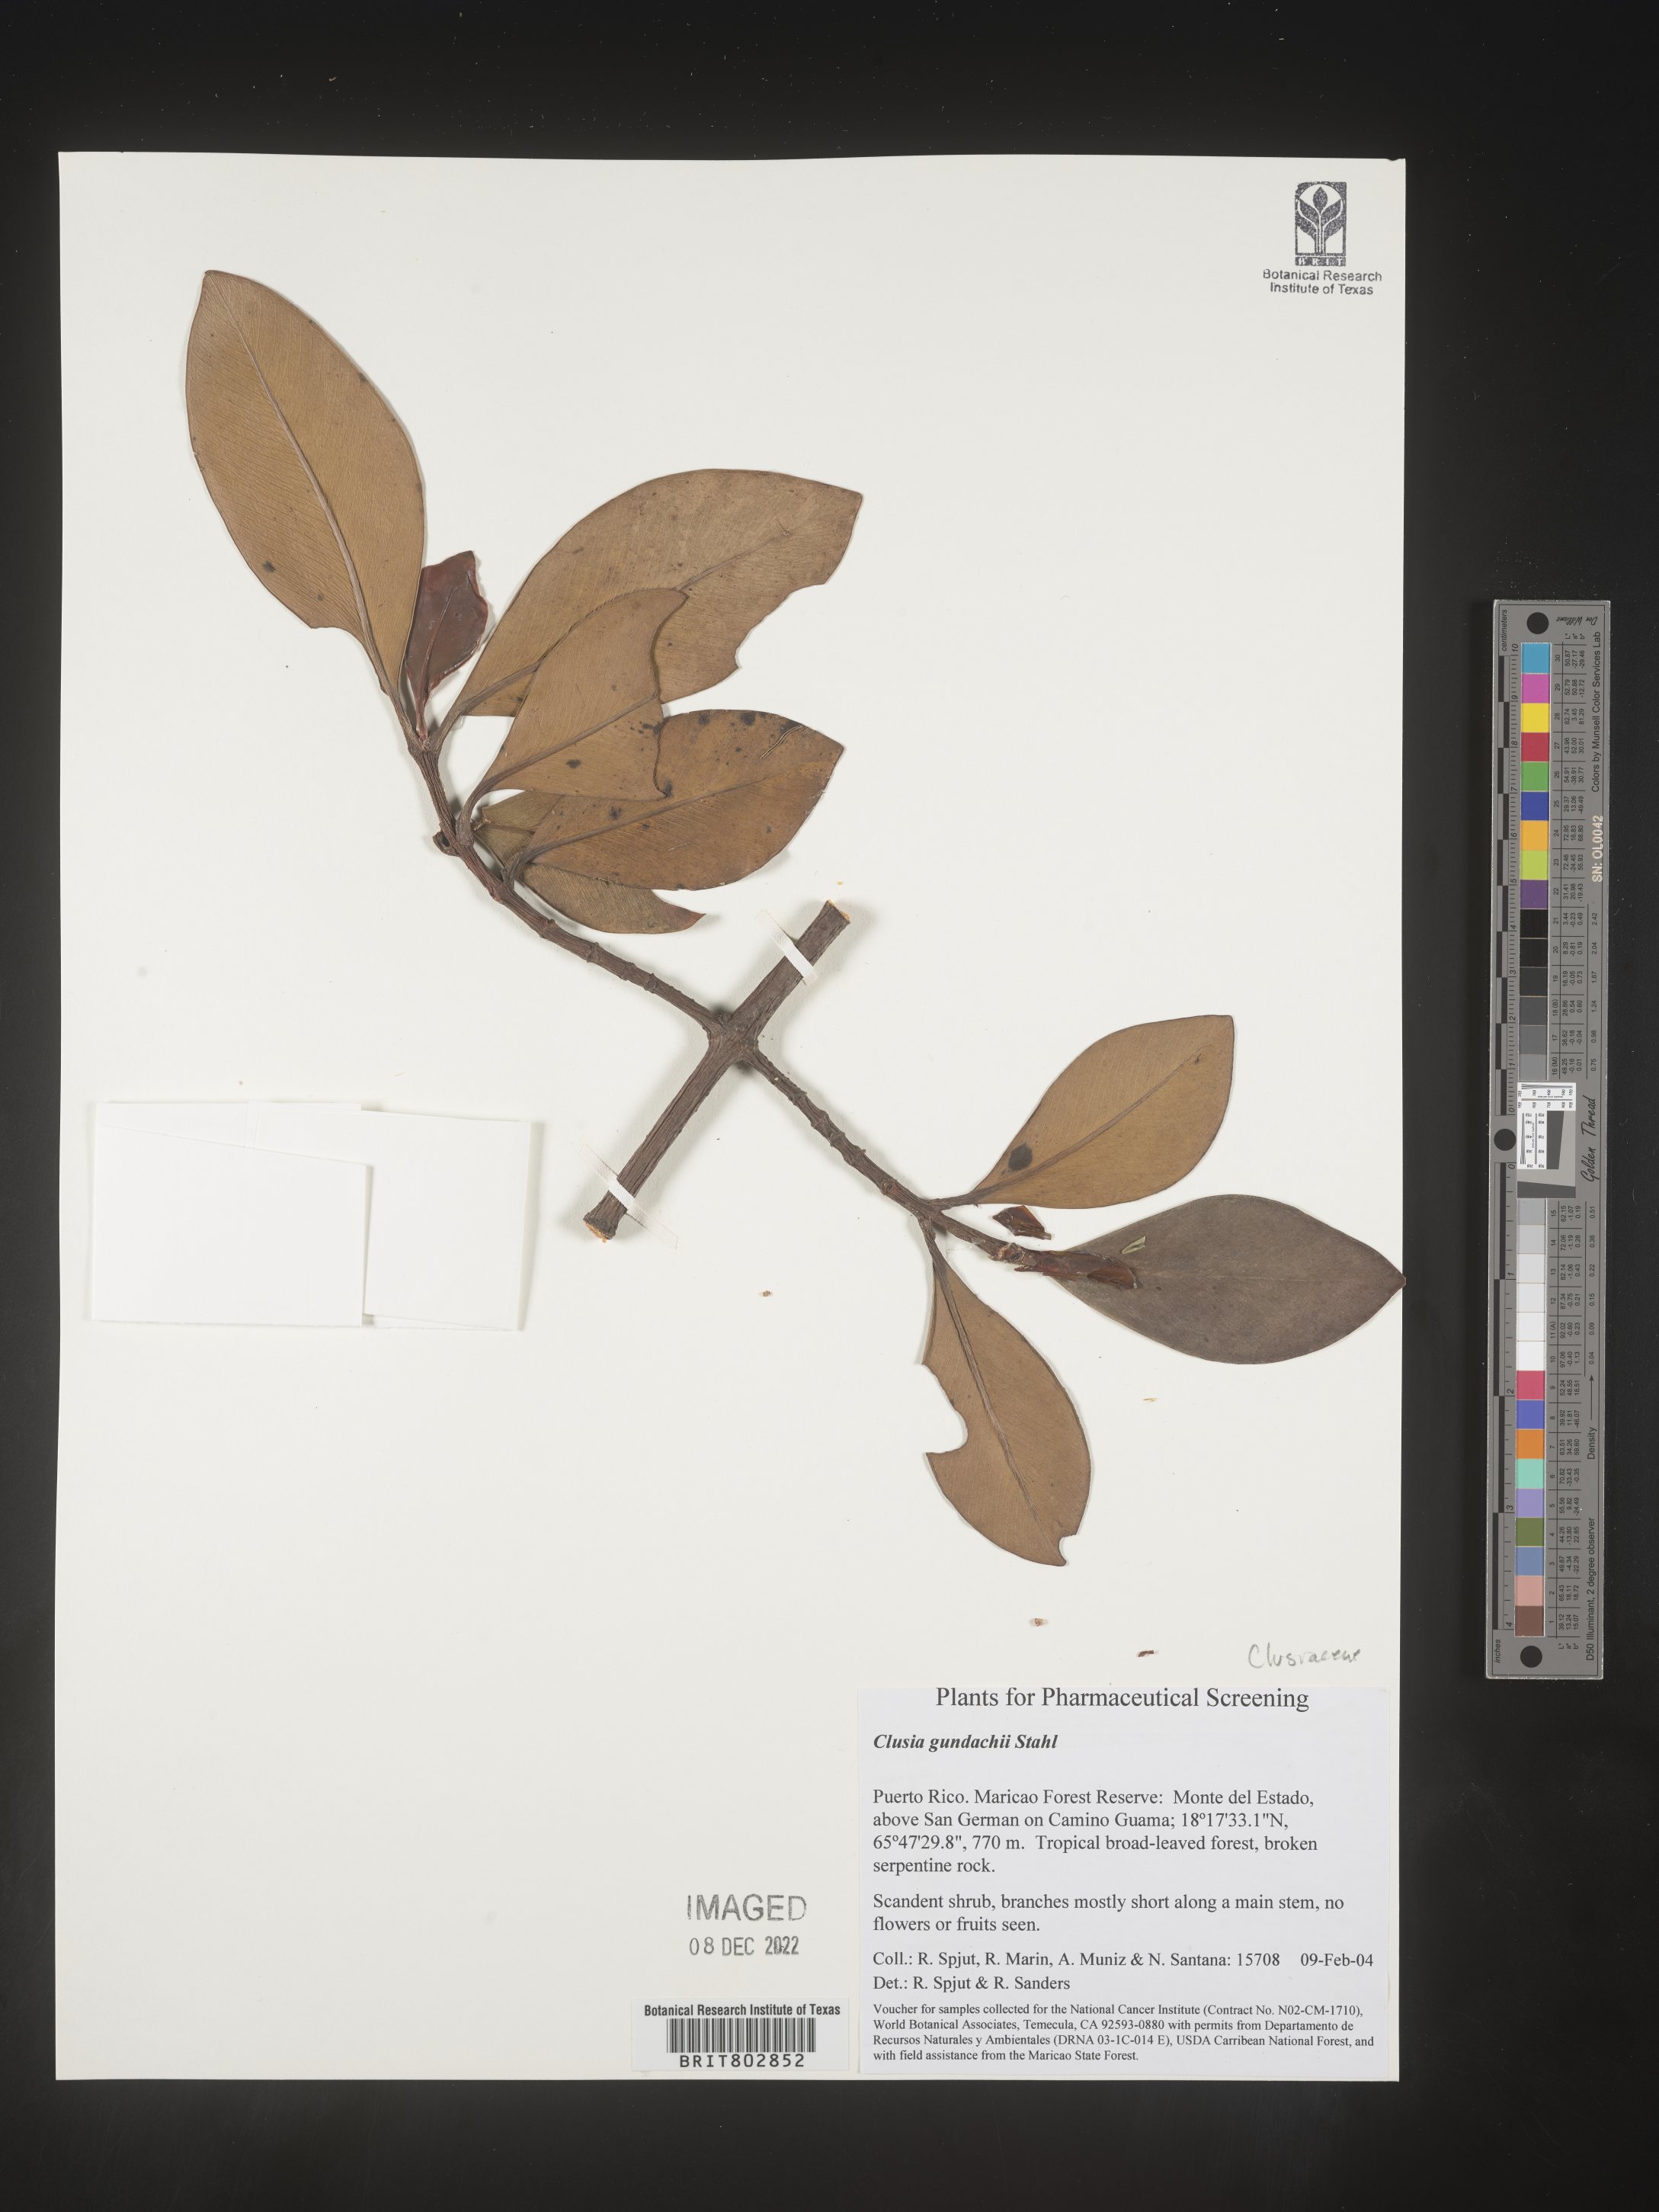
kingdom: Plantae
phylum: Tracheophyta
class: Magnoliopsida
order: Malpighiales
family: Clusiaceae
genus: Clusia
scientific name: Clusia
